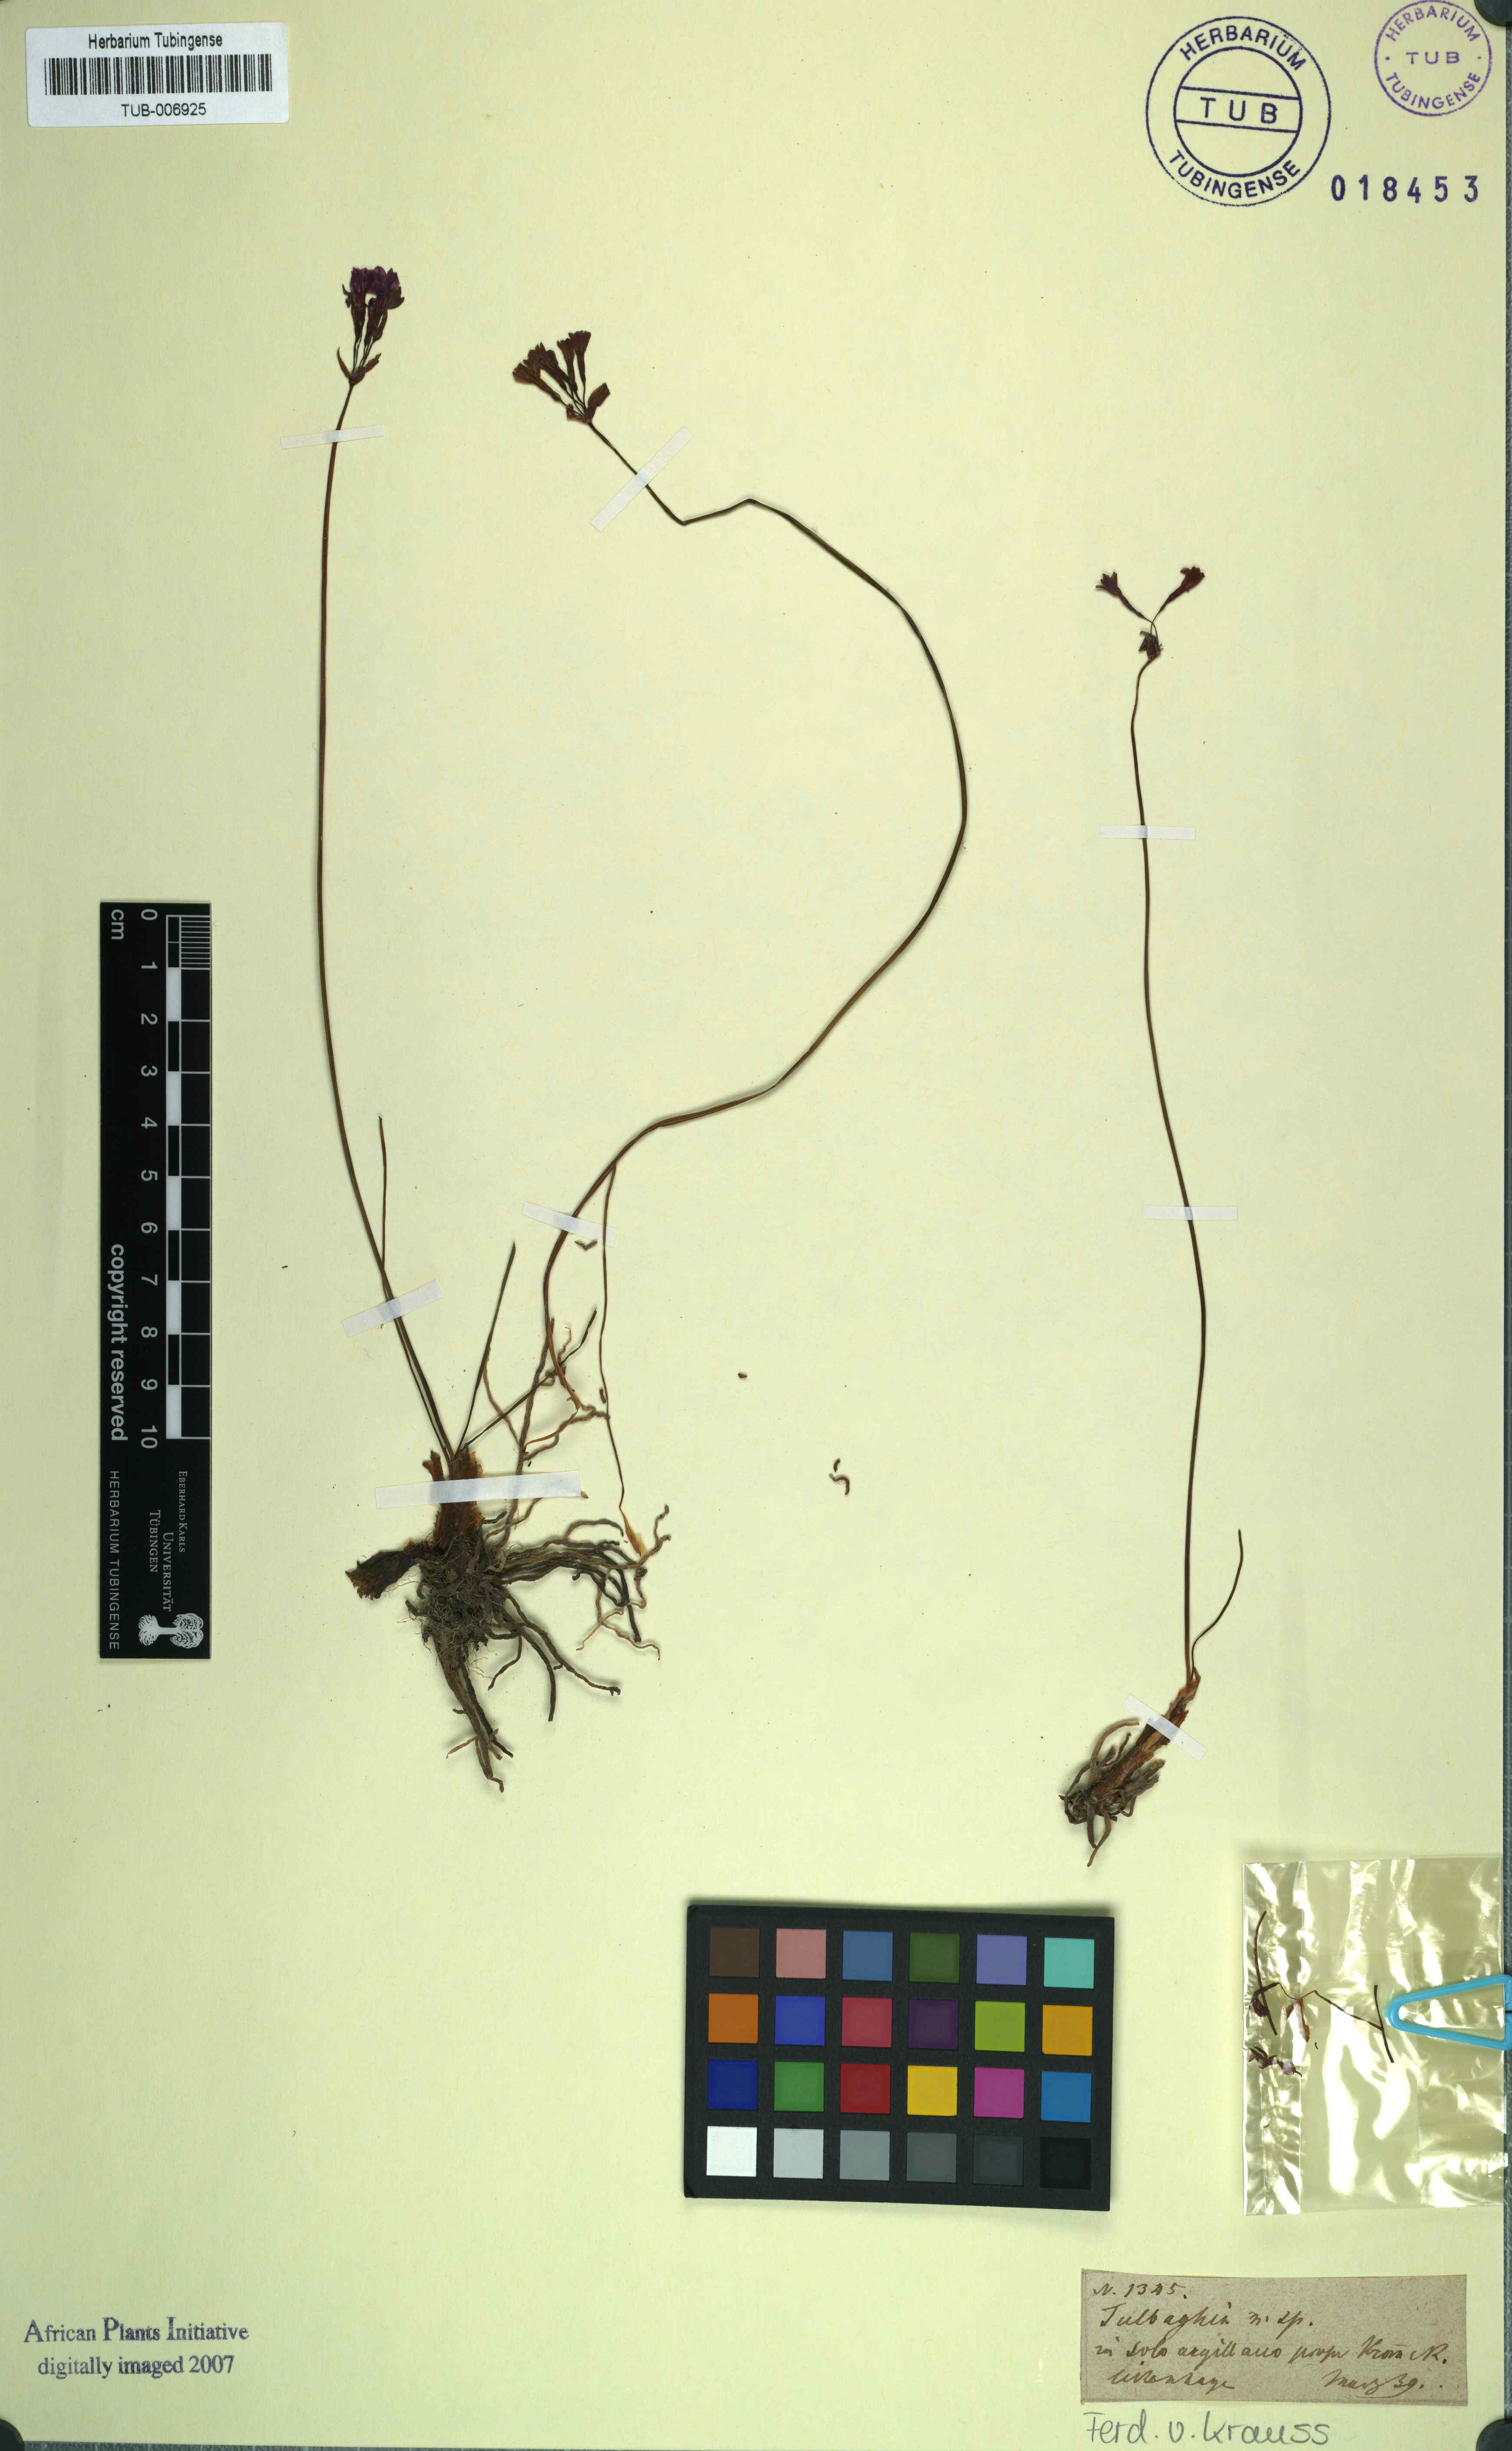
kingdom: Plantae
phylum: Tracheophyta
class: Liliopsida
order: Asparagales
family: Amaryllidaceae
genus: Tulbaghia
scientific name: Tulbaghia
